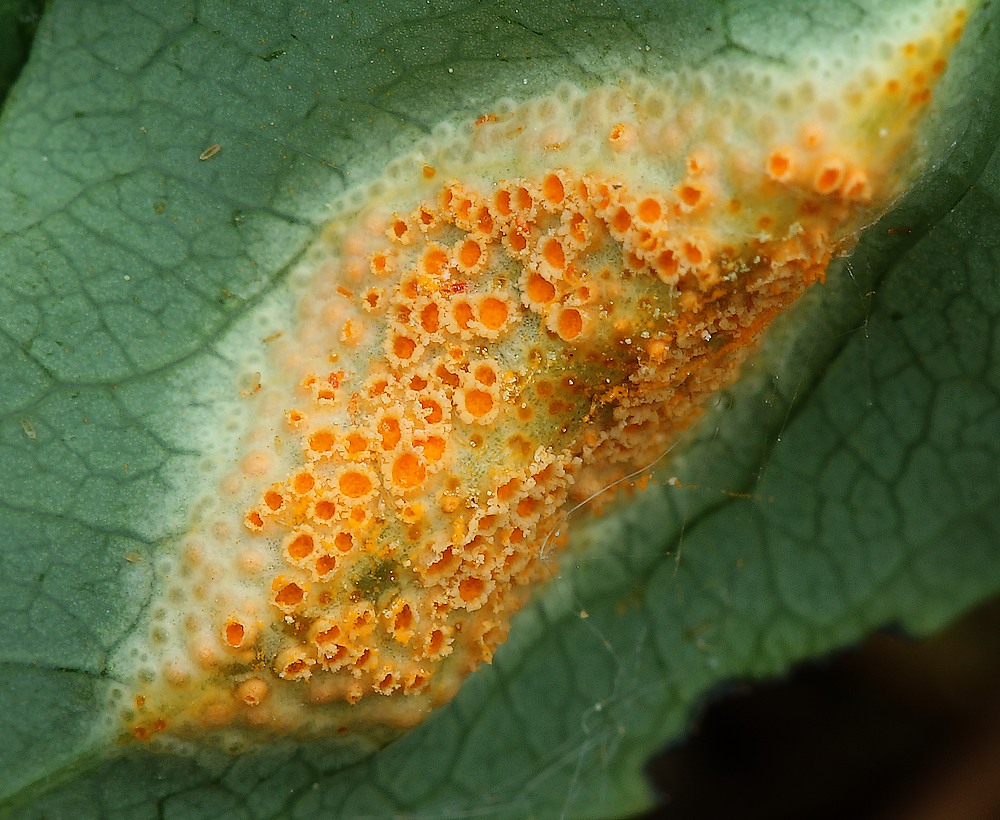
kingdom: Fungi
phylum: Basidiomycota
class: Pucciniomycetes
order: Pucciniales
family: Pucciniaceae
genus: Puccinia
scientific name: Puccinia festucae
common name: gedeblad-tvecellerust
